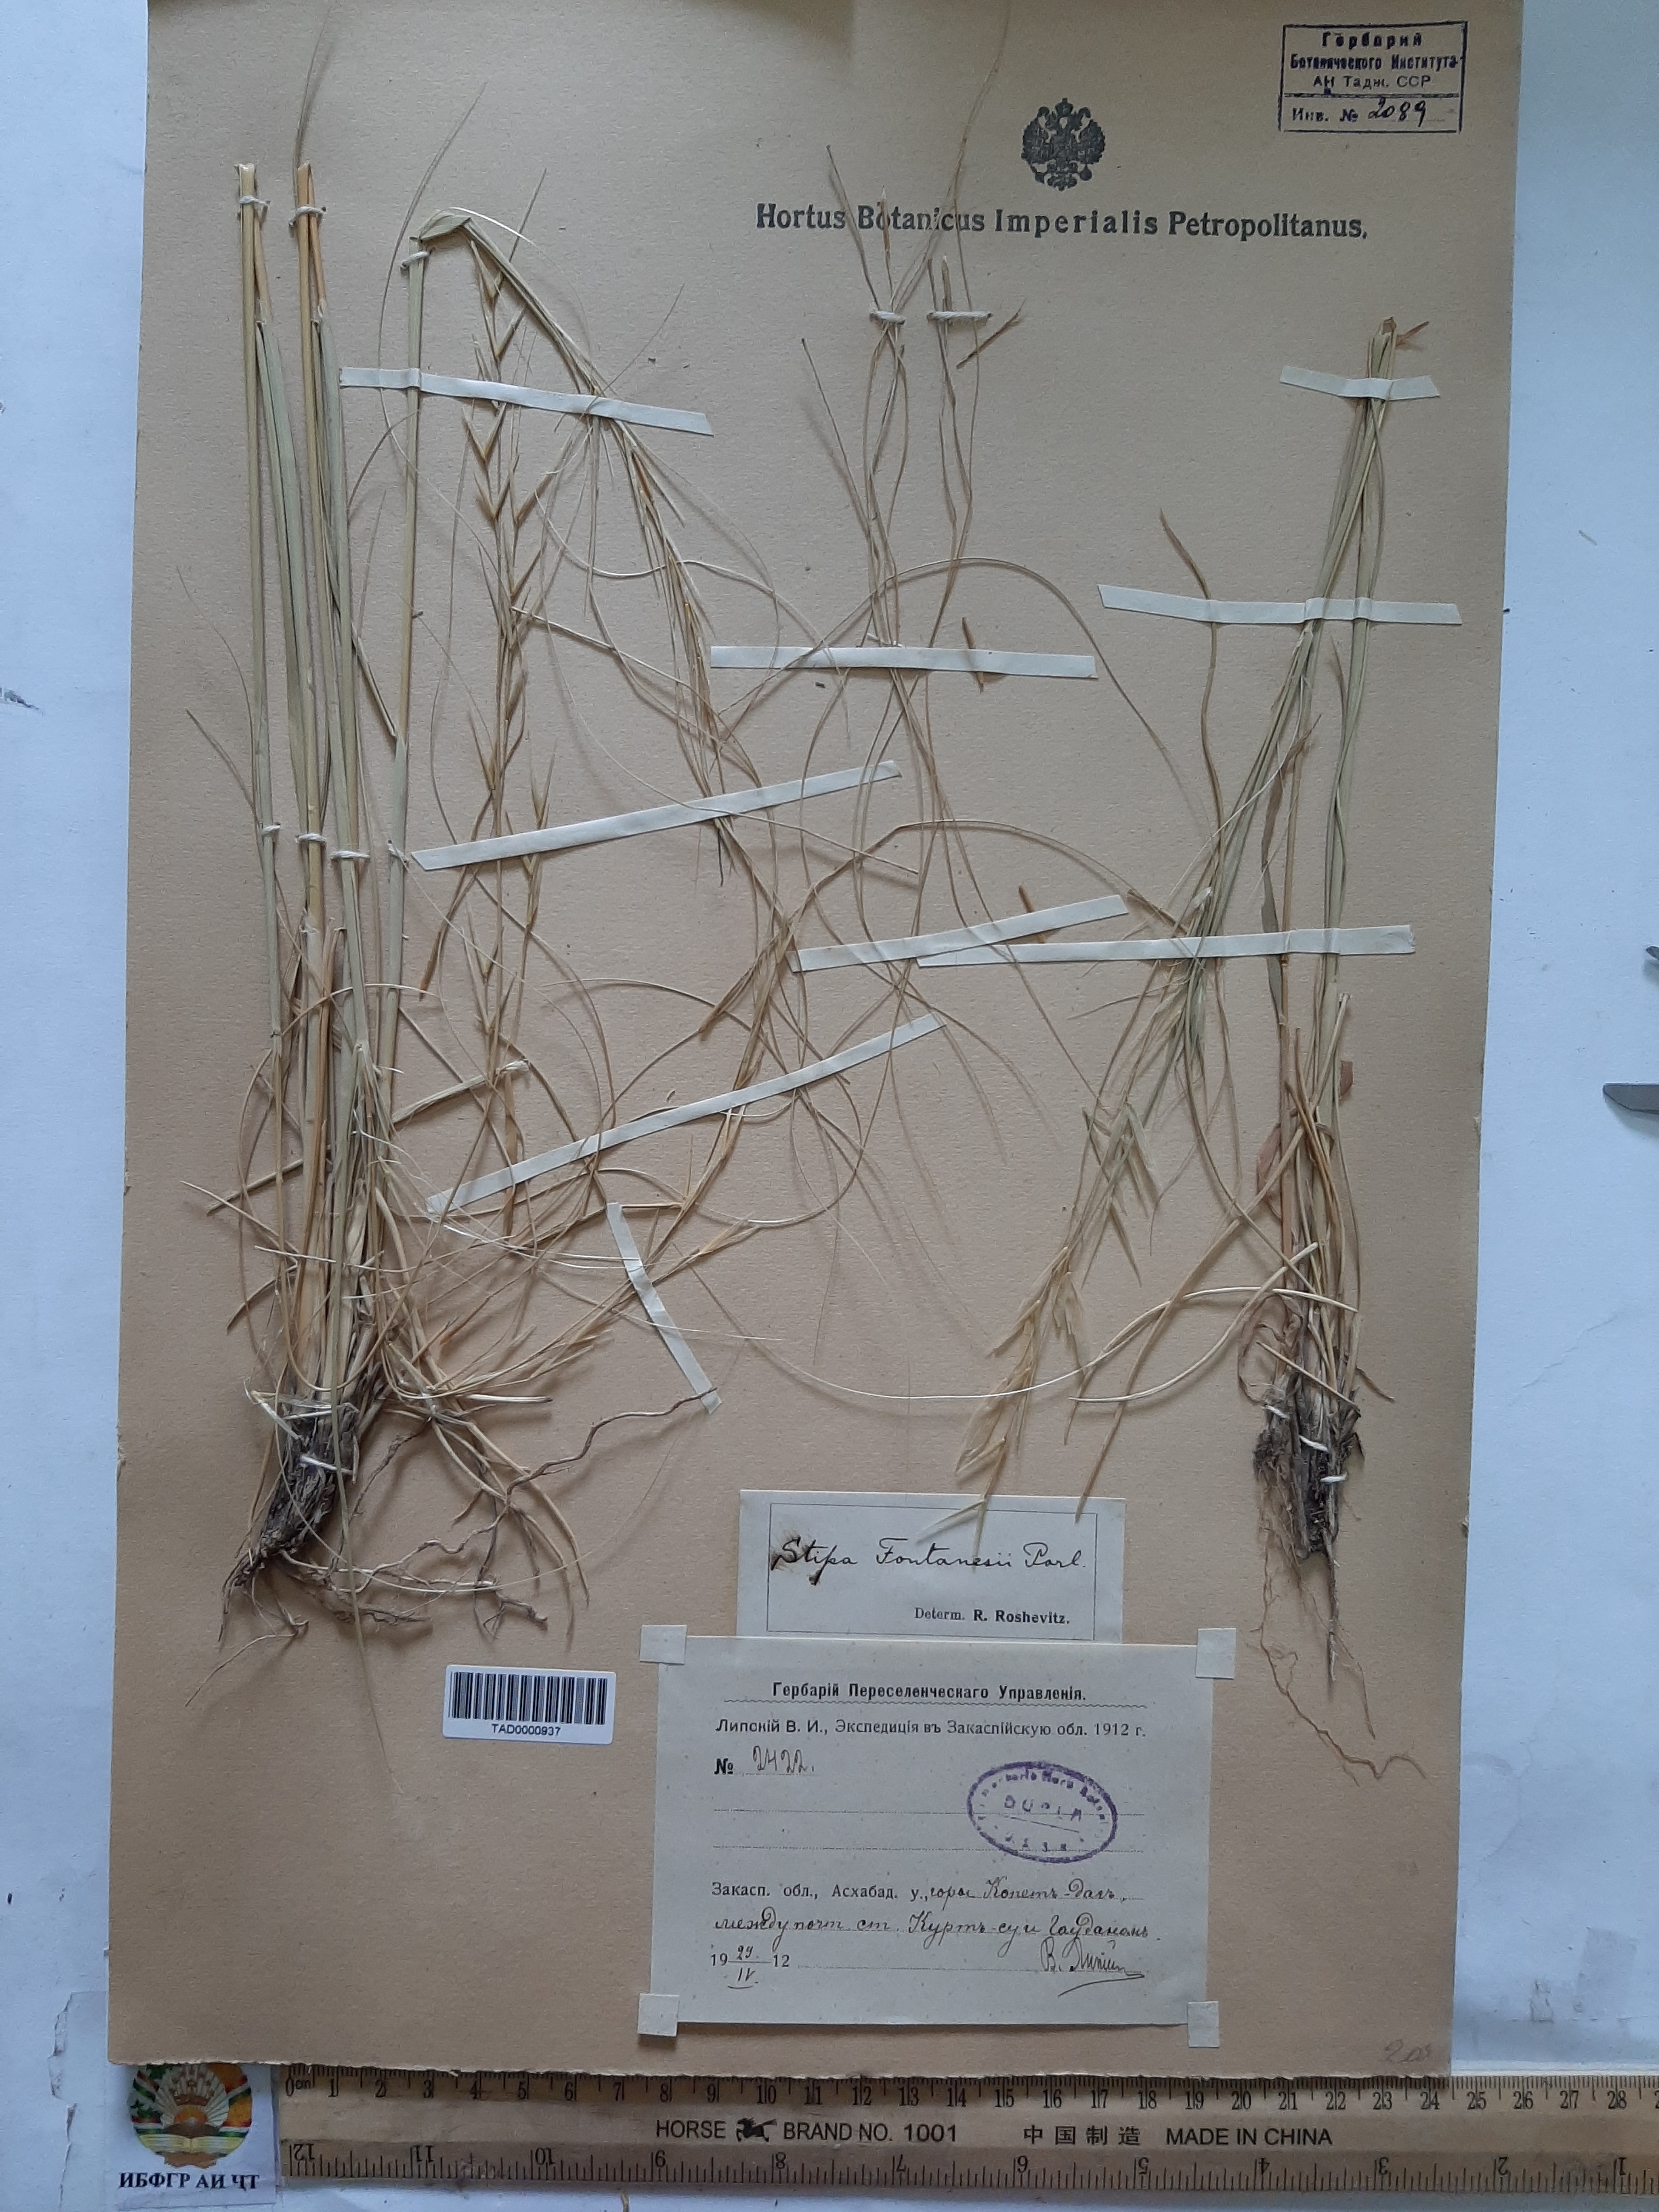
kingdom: Plantae
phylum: Tracheophyta
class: Liliopsida
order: Poales
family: Poaceae
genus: Stipa
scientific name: Stipa holosericea
